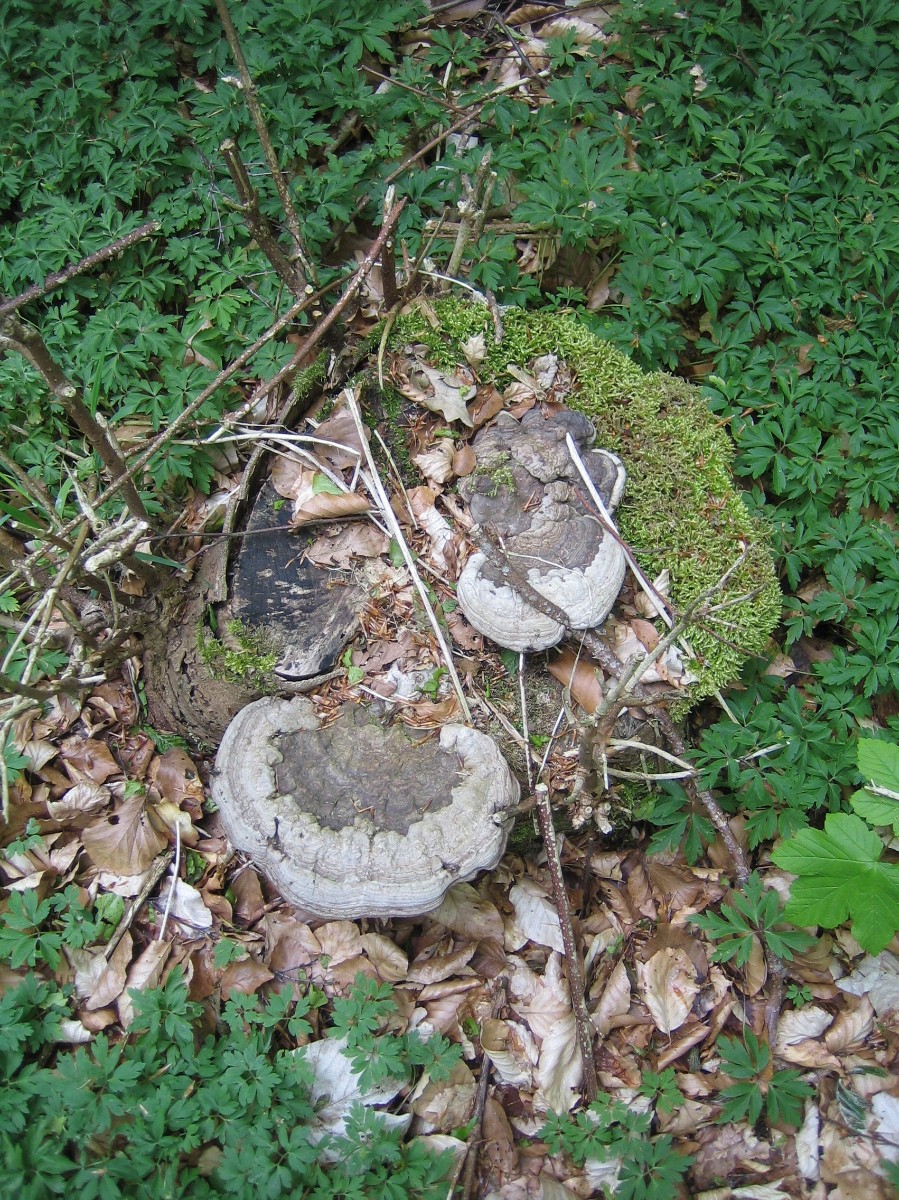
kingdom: Fungi
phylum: Basidiomycota
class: Agaricomycetes
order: Polyporales
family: Polyporaceae
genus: Ganoderma
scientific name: Ganoderma applanatum
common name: flad lakporesvamp
